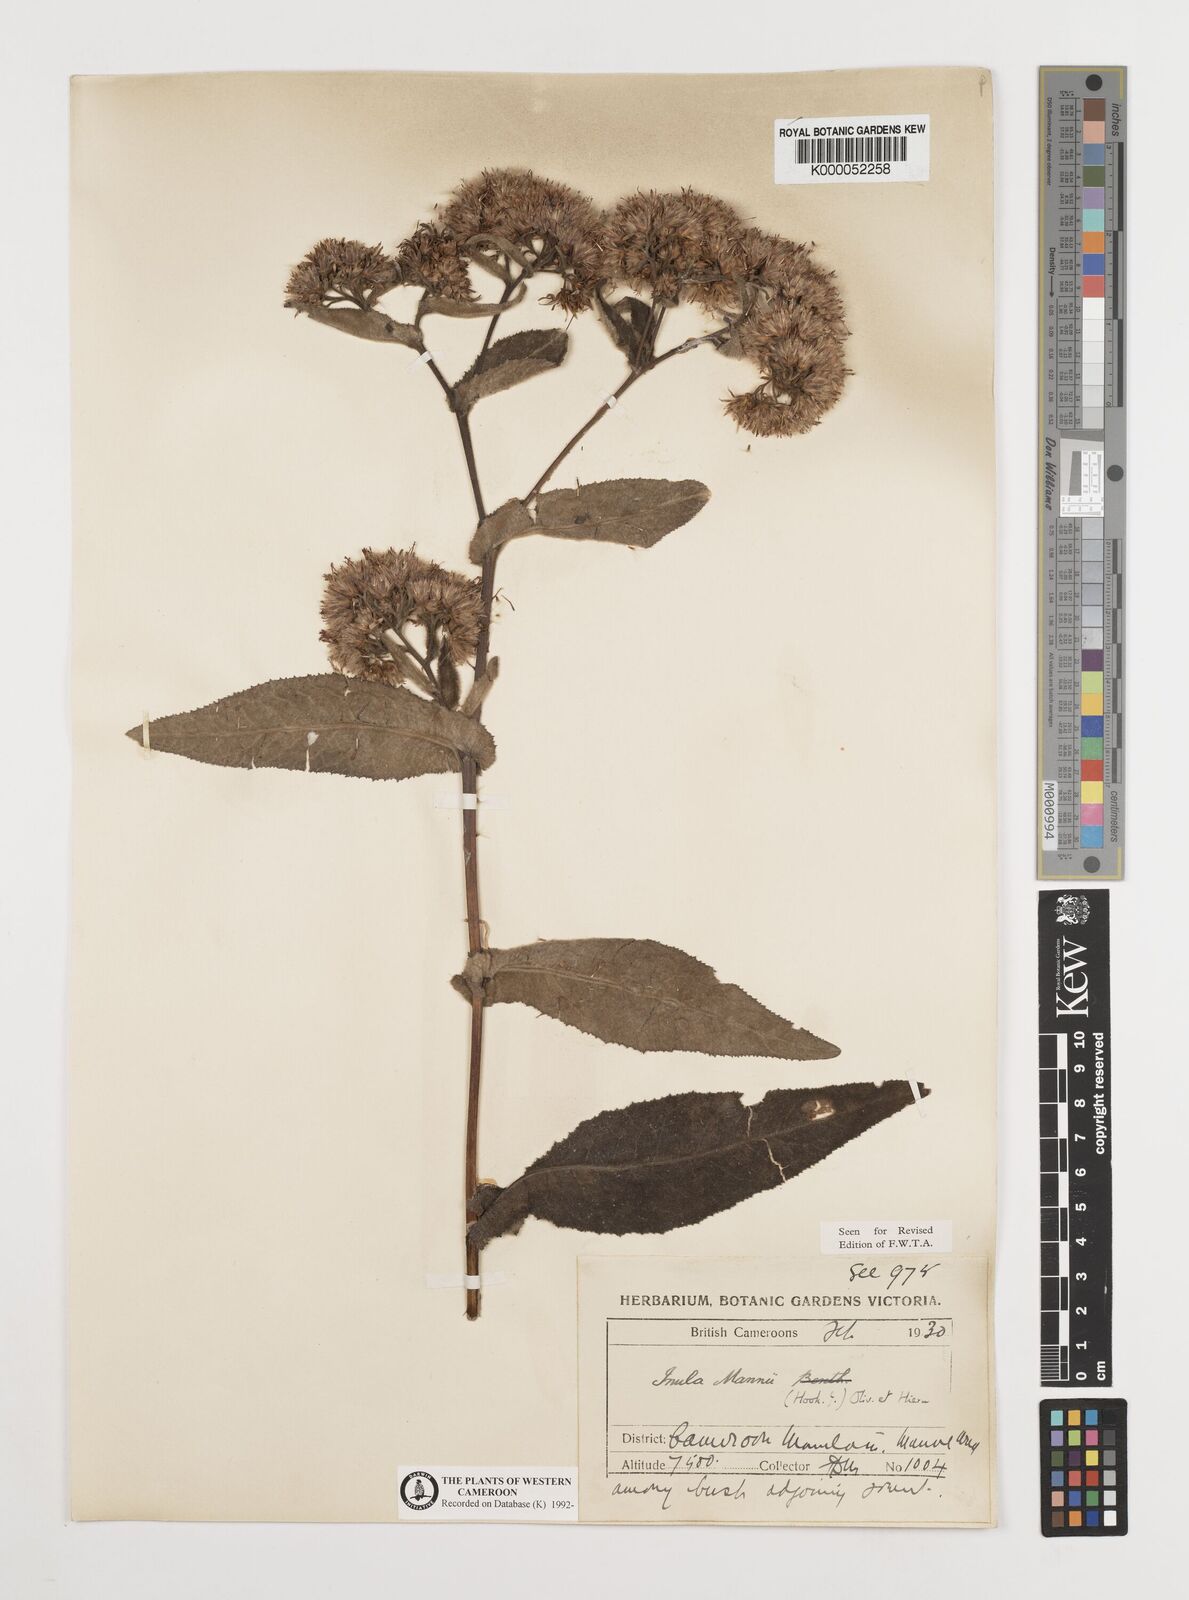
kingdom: Plantae
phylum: Tracheophyta
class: Magnoliopsida
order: Asterales
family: Asteraceae
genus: Inula
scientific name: Inula mannii
